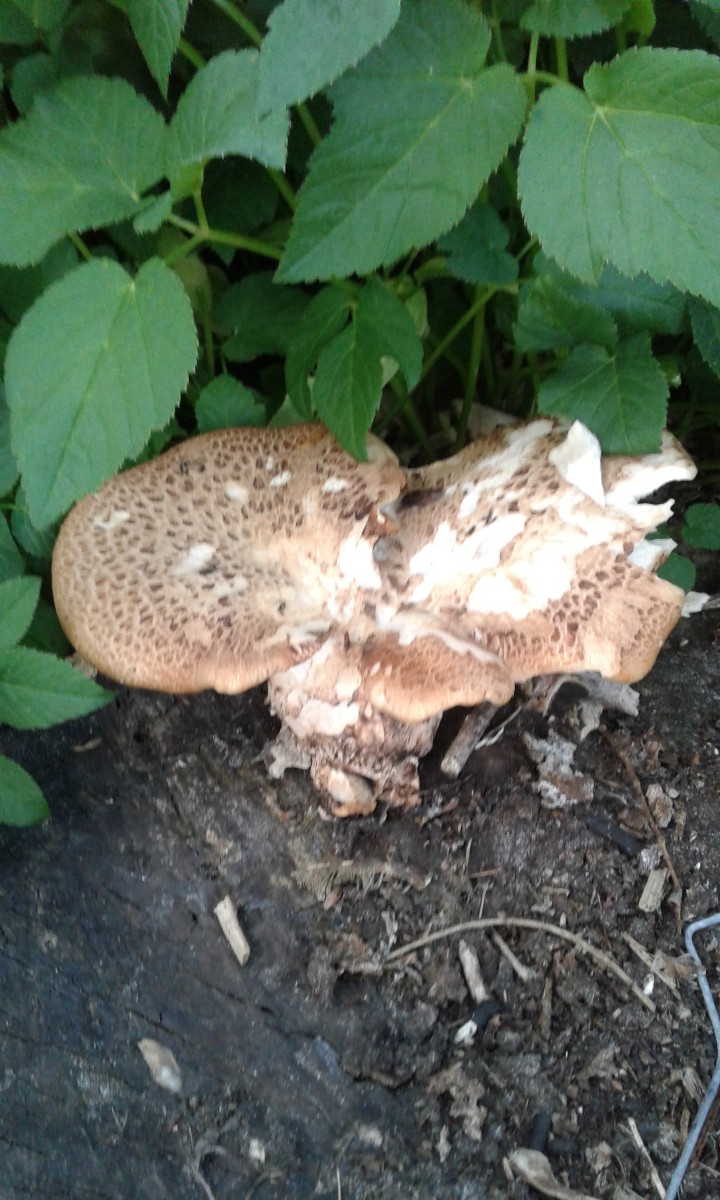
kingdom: Fungi
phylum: Basidiomycota
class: Agaricomycetes
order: Polyporales
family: Polyporaceae
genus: Cerioporus
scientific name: Cerioporus squamosus
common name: skællet stilkporesvamp
